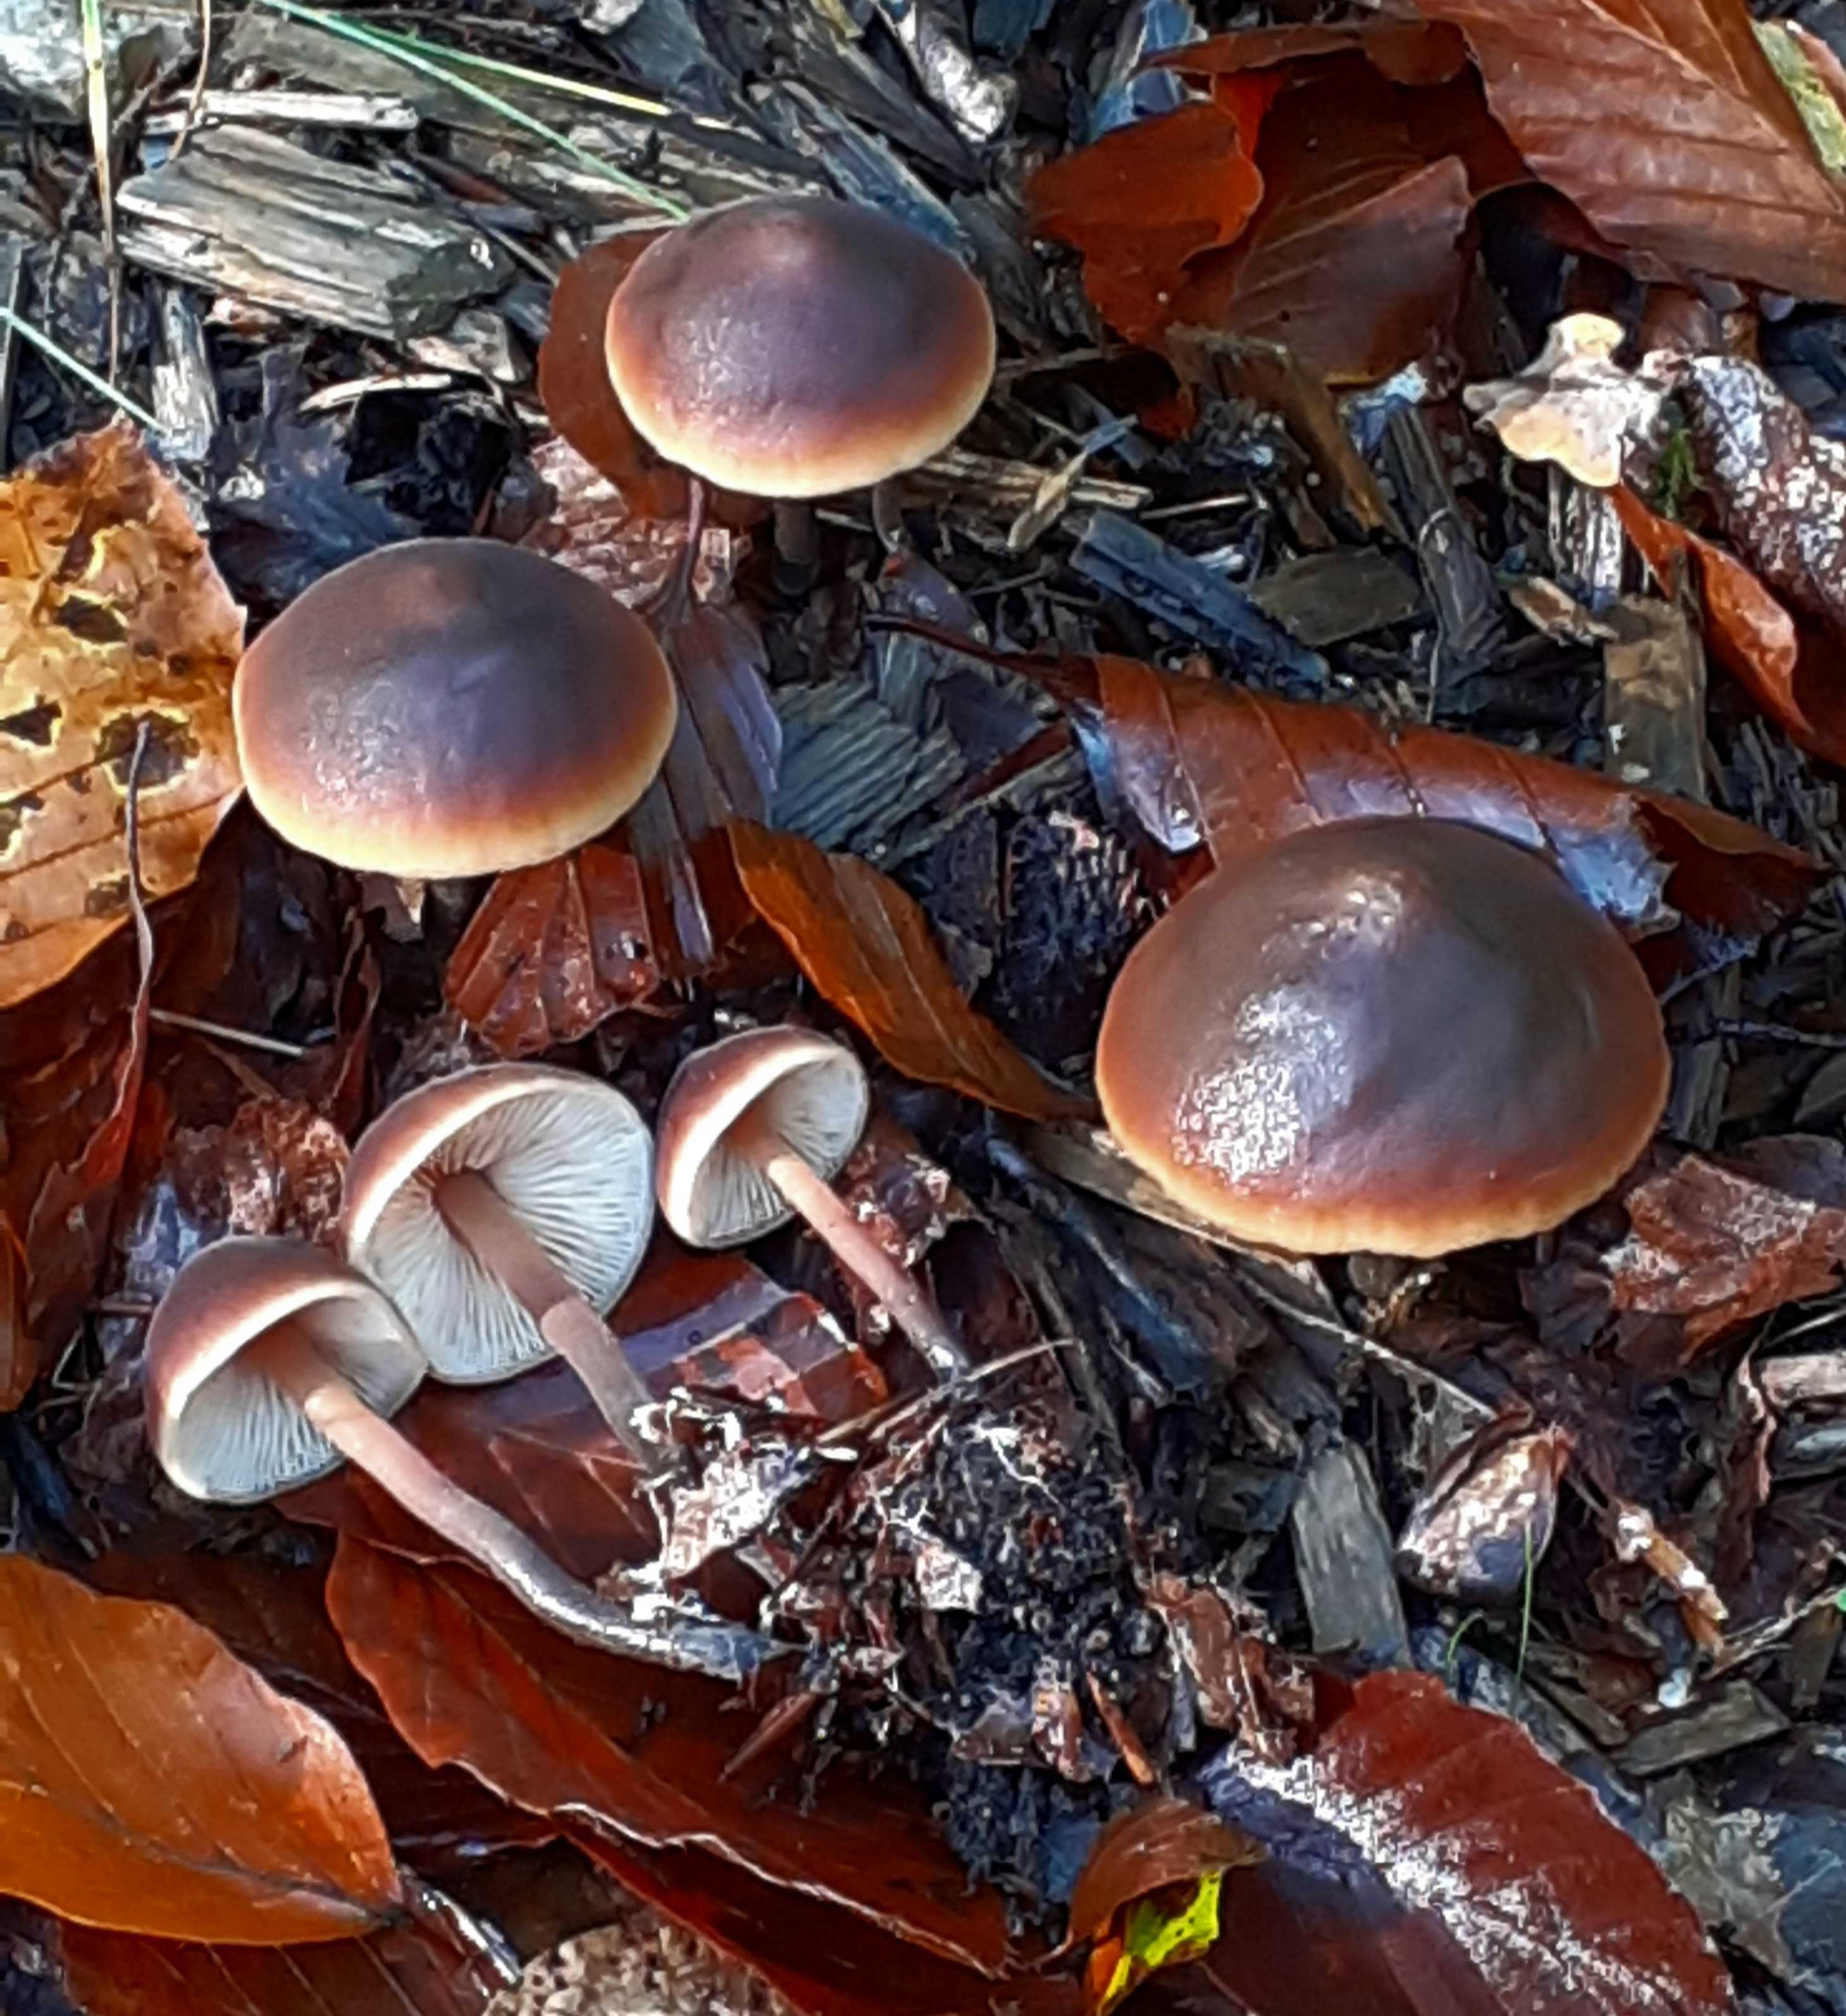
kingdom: Fungi
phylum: Basidiomycota
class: Agaricomycetes
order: Agaricales
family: Macrocystidiaceae
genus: Macrocystidia
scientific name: Macrocystidia cucumis
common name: agurkehat
